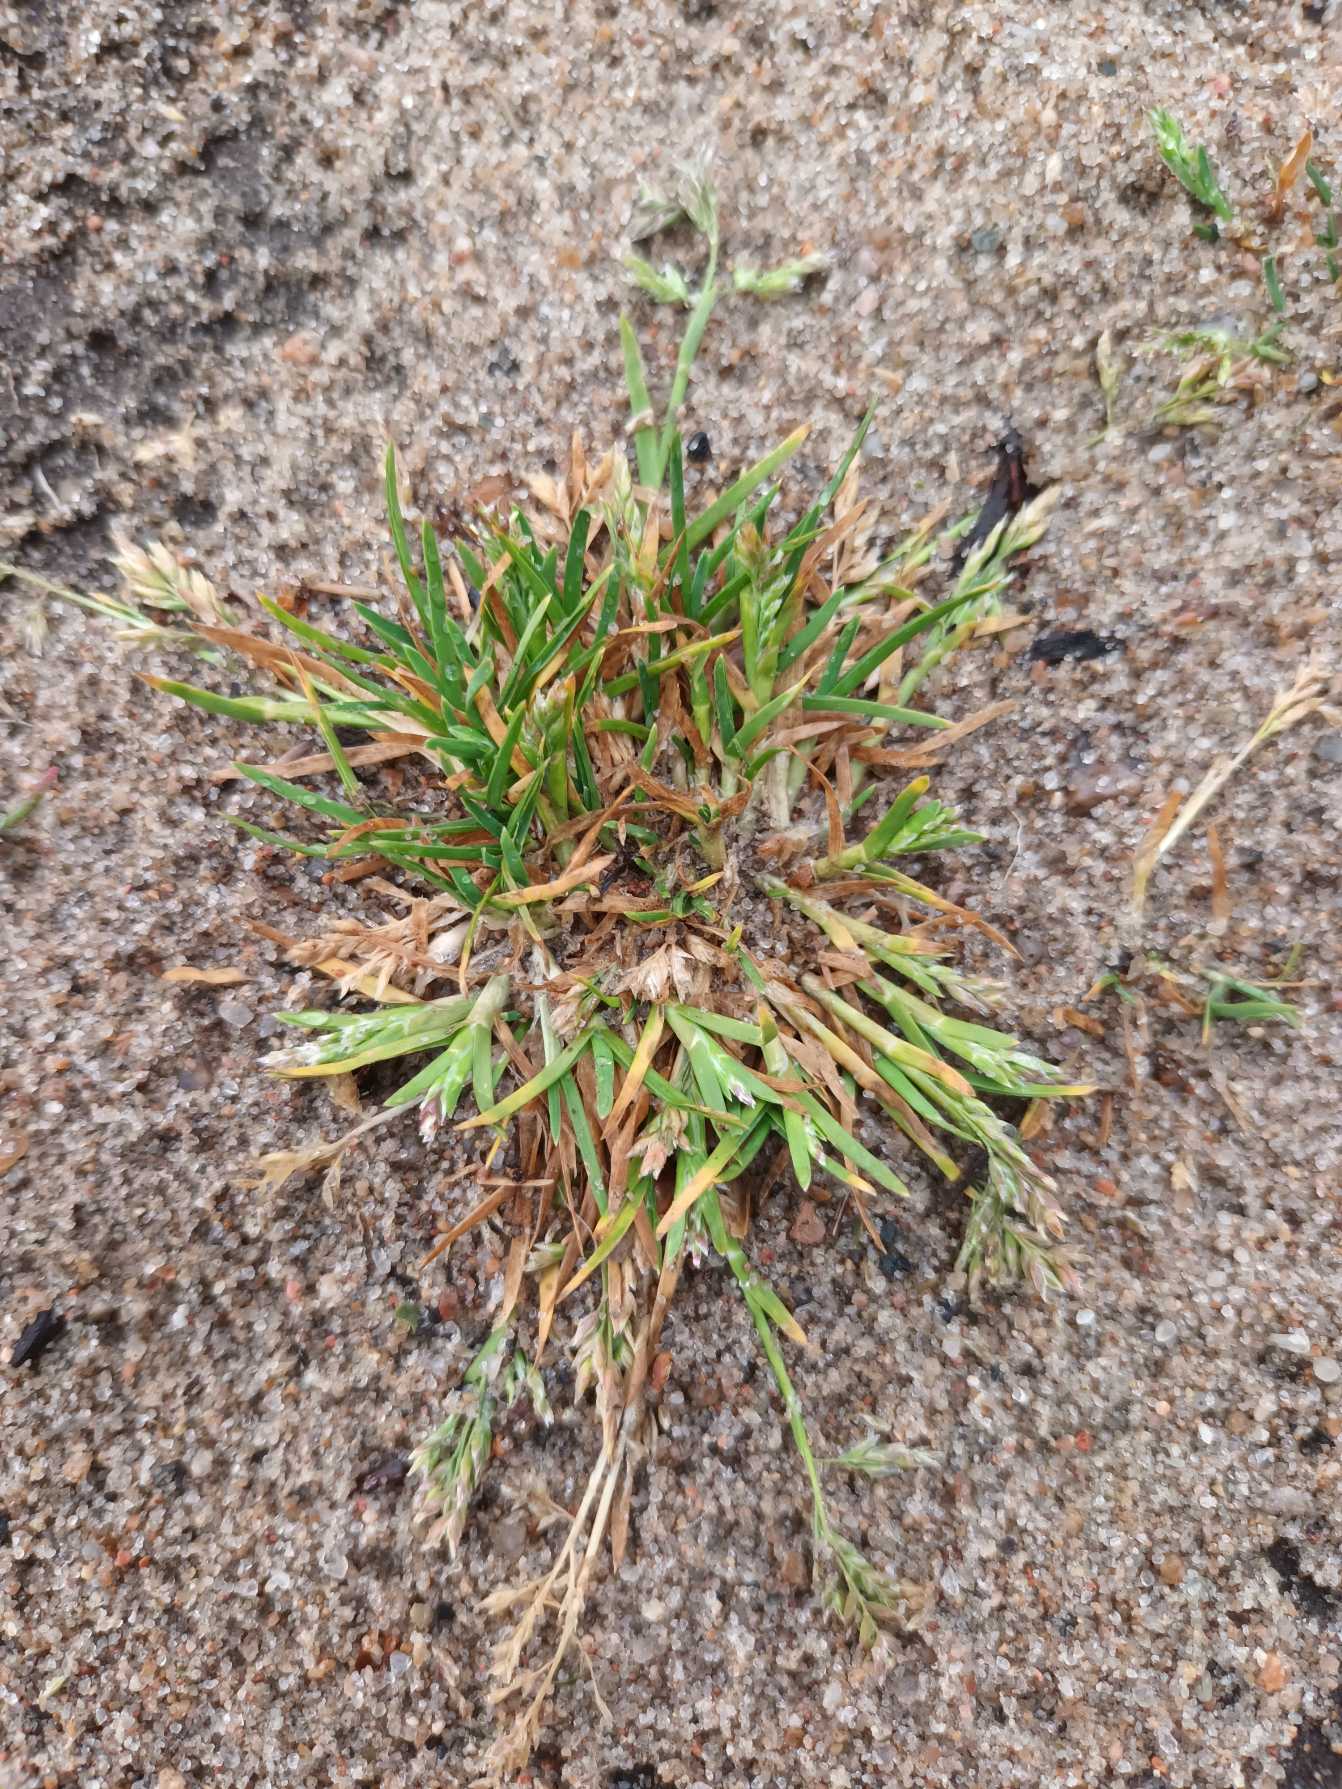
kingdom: Plantae
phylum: Tracheophyta
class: Liliopsida
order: Poales
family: Poaceae
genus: Poa
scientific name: Poa annua
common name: Enårig rapgræs
